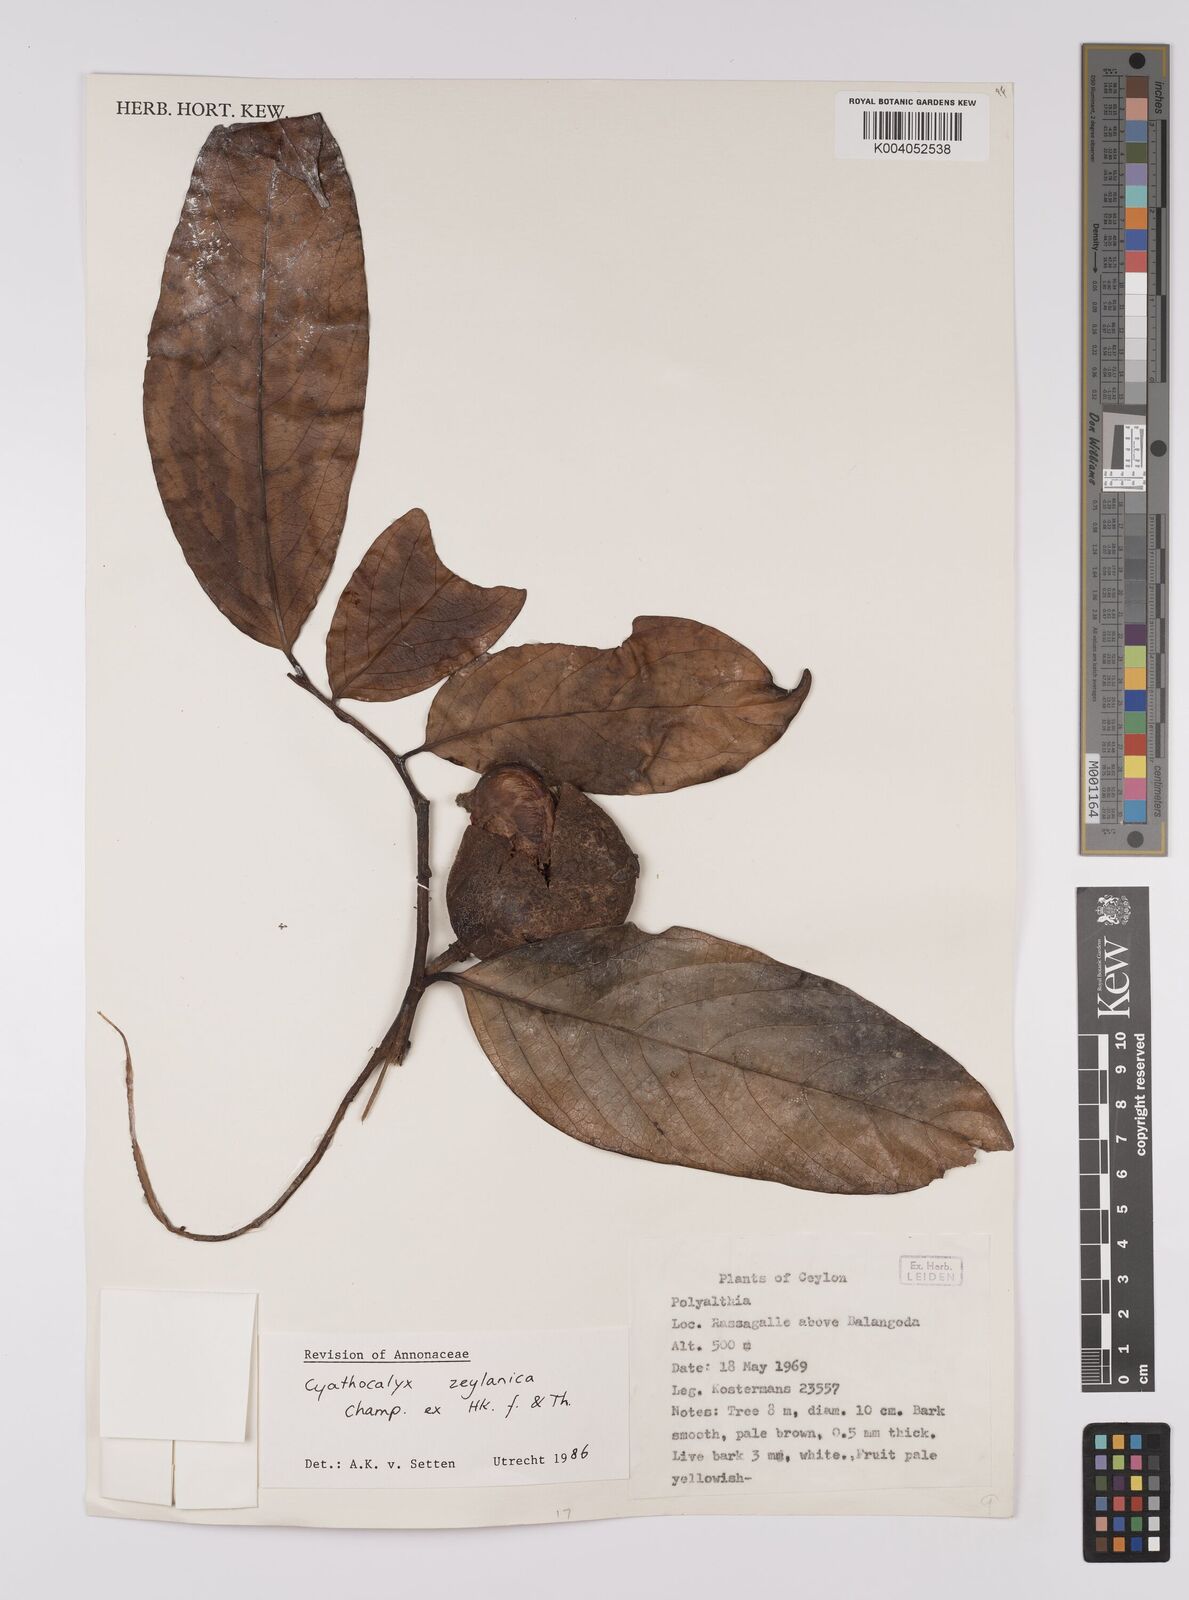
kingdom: Plantae
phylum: Tracheophyta
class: Magnoliopsida
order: Magnoliales
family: Annonaceae
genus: Cyathocalyx
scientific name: Cyathocalyx zeylanicus
